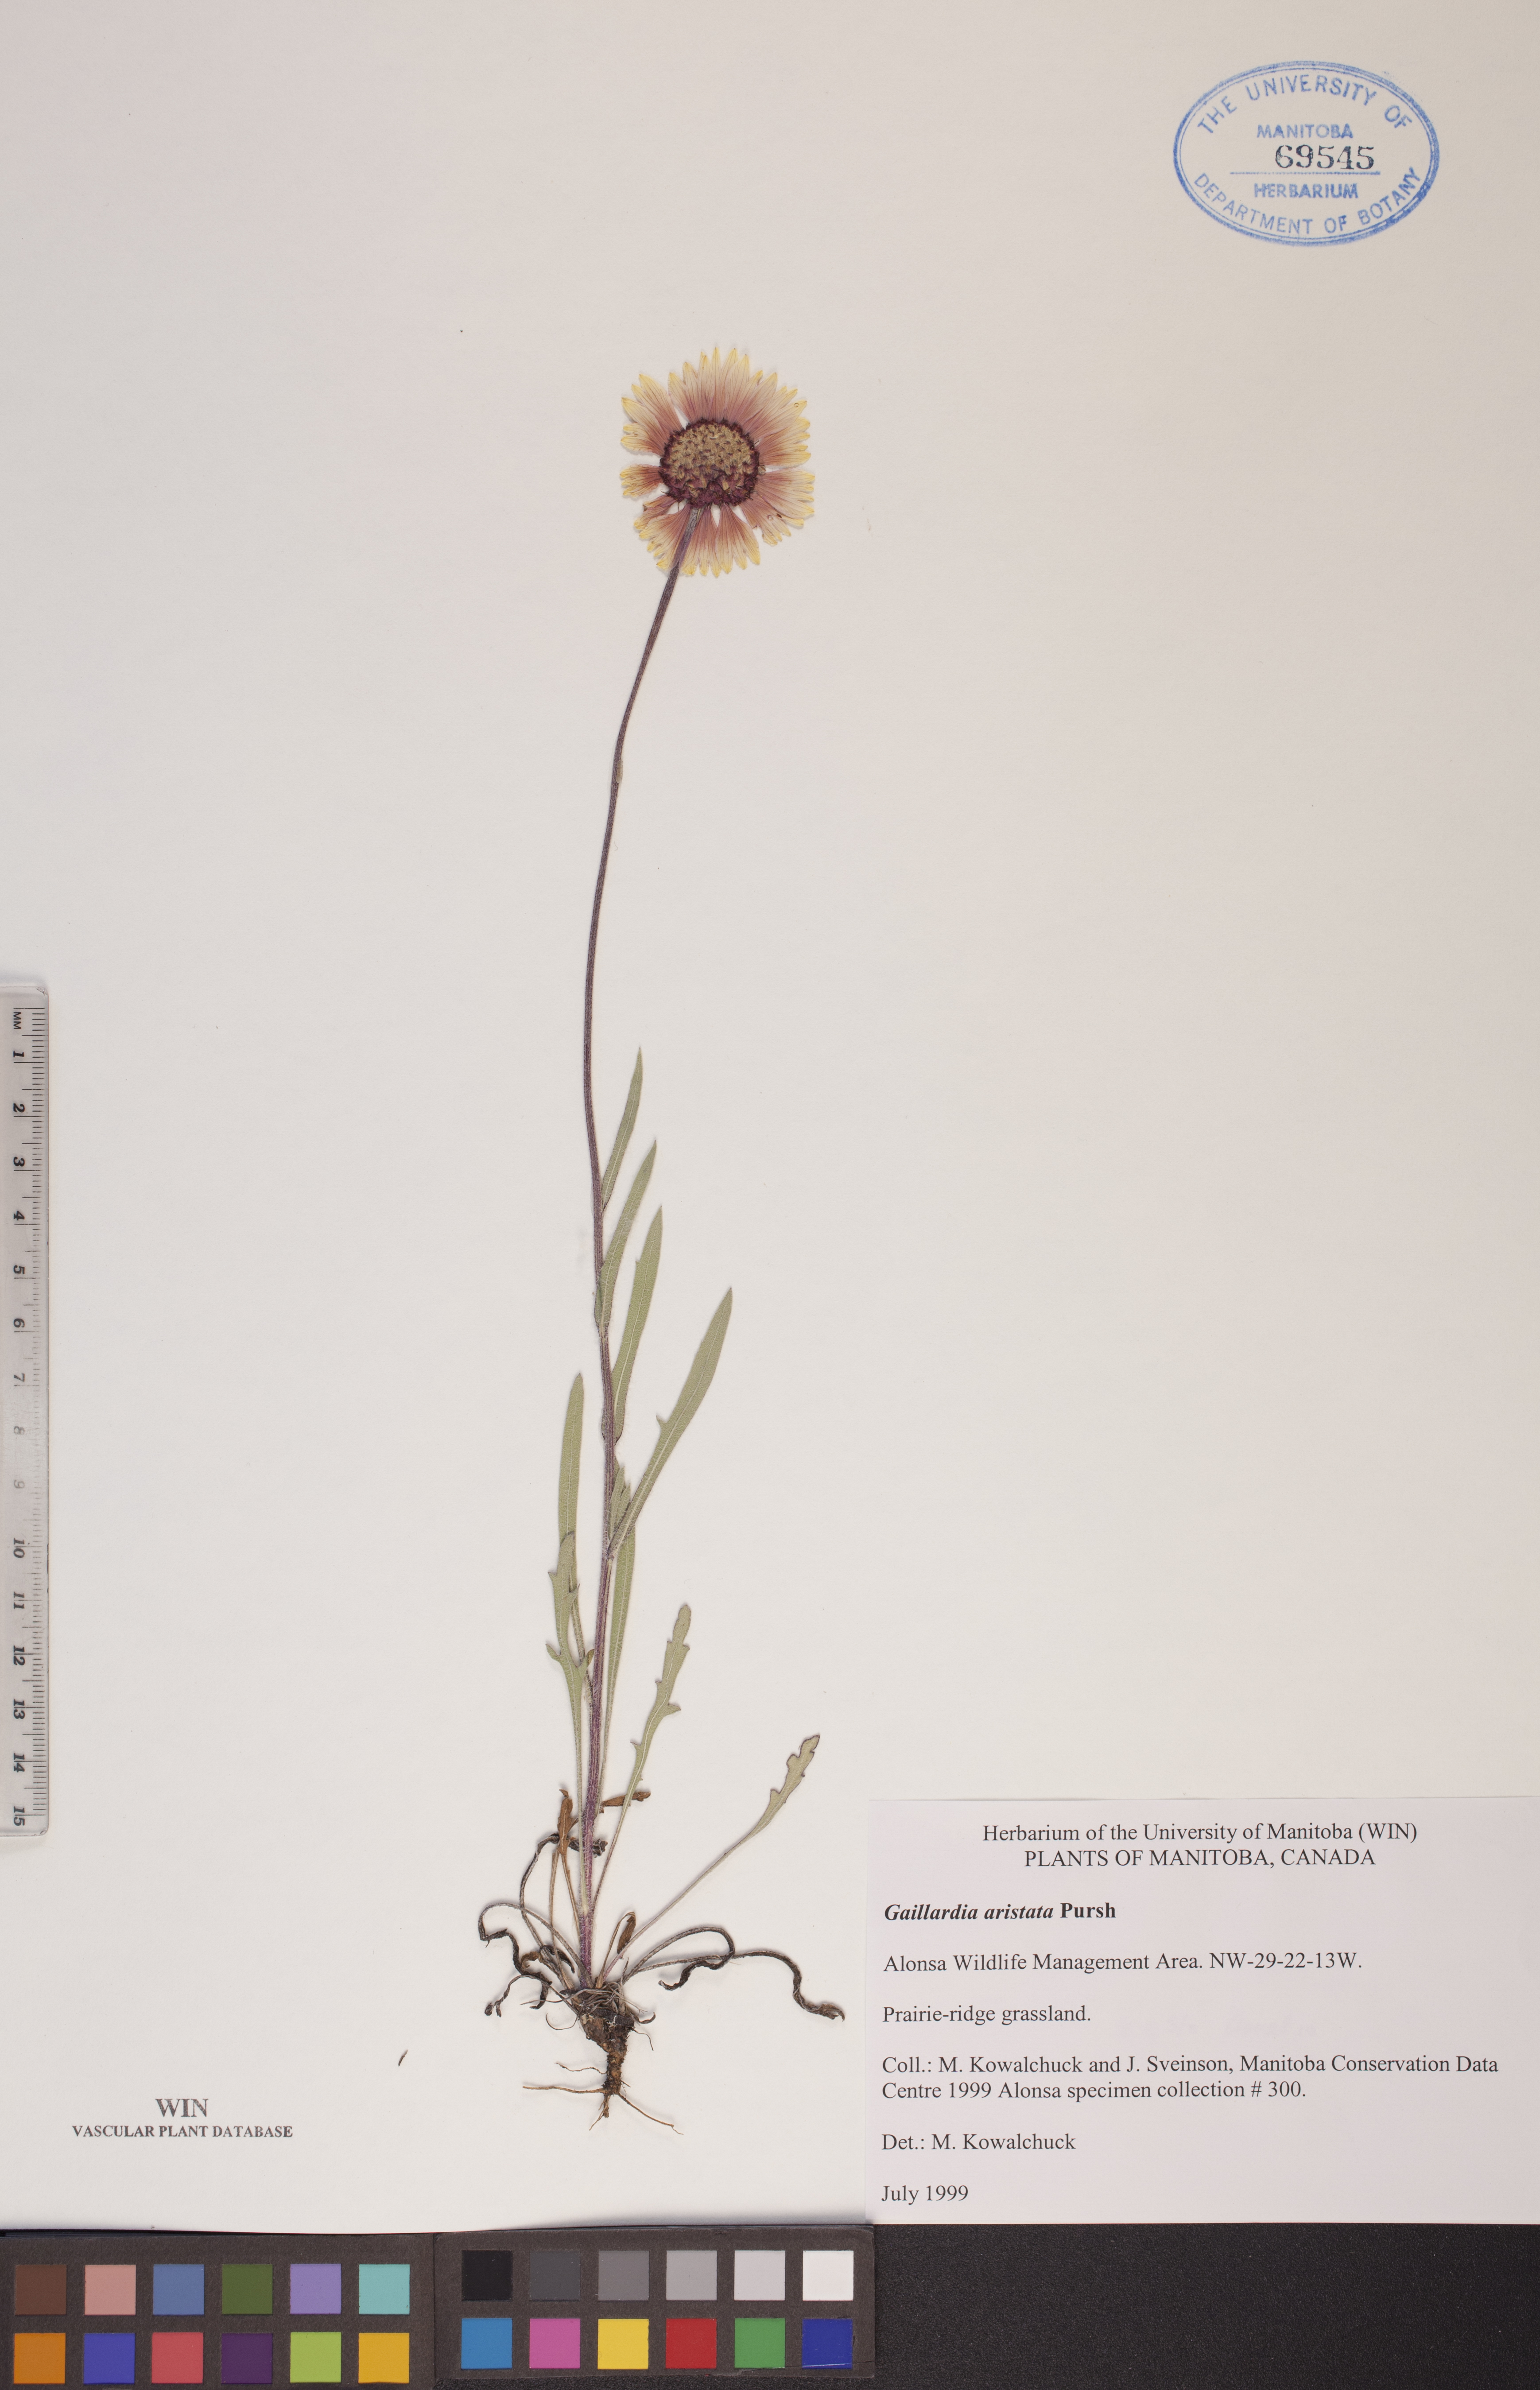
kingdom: Plantae
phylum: Tracheophyta
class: Magnoliopsida
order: Asterales
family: Asteraceae
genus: Gaillardia
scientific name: Gaillardia aristata
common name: Blanket-flower
